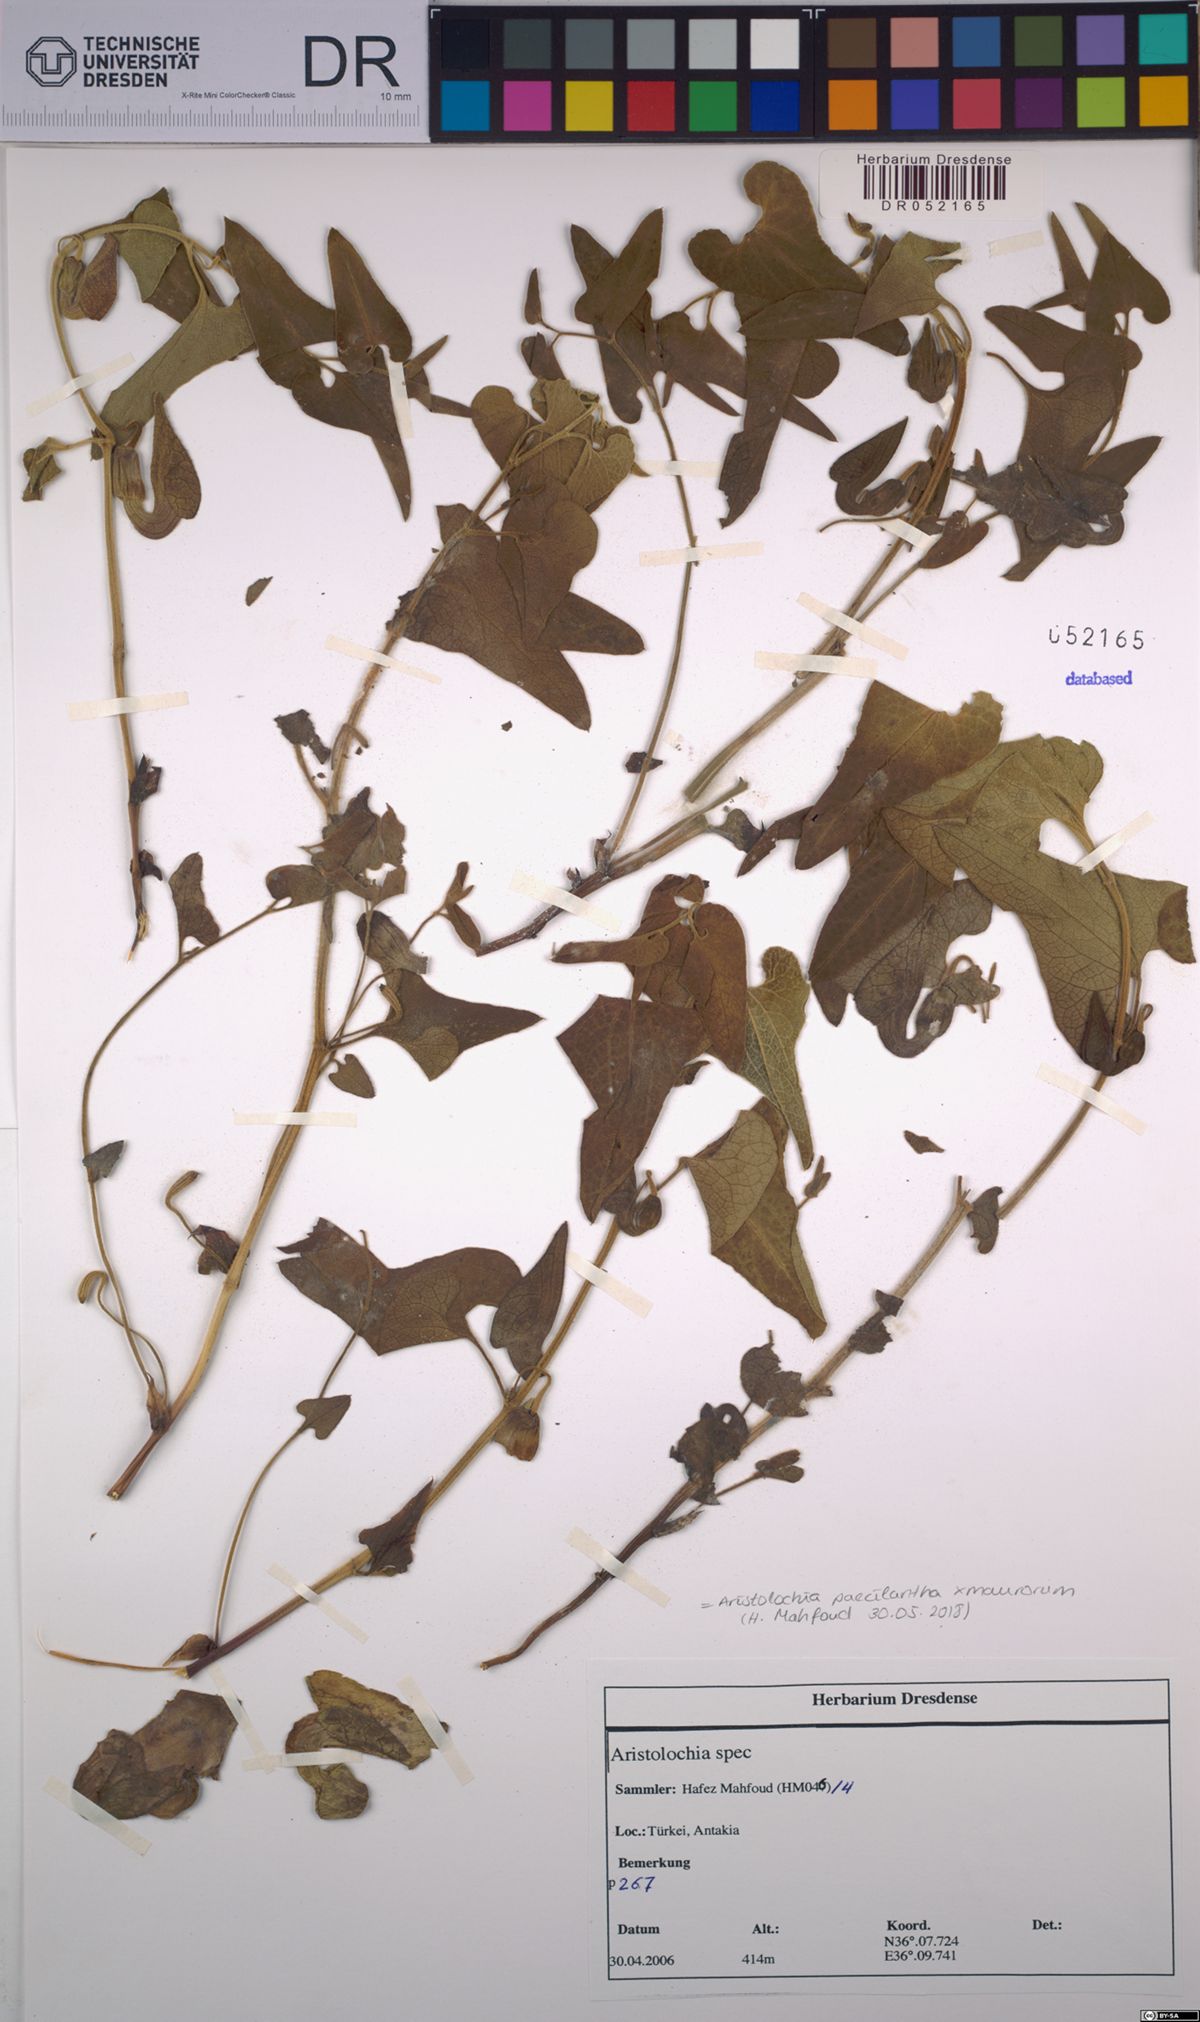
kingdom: Plantae
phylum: Tracheophyta
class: Magnoliopsida
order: Piperales
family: Aristolochiaceae
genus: Aristolochia
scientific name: Aristolochia paecilantha
